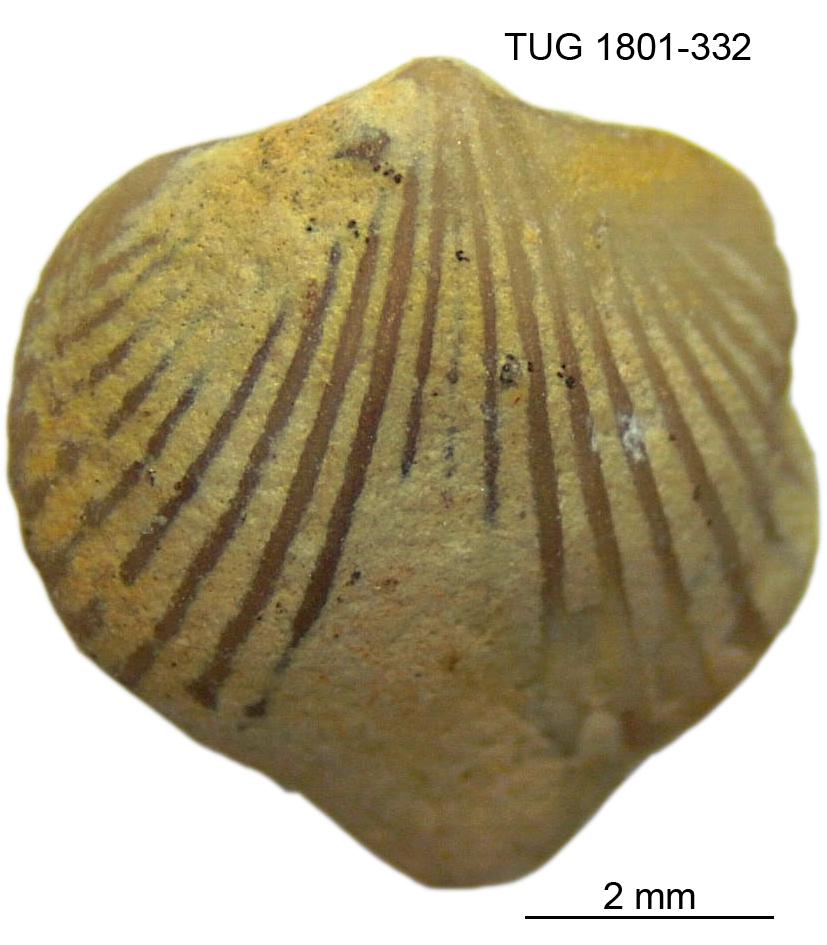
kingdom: Animalia
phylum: Brachiopoda
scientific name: Brachiopoda
